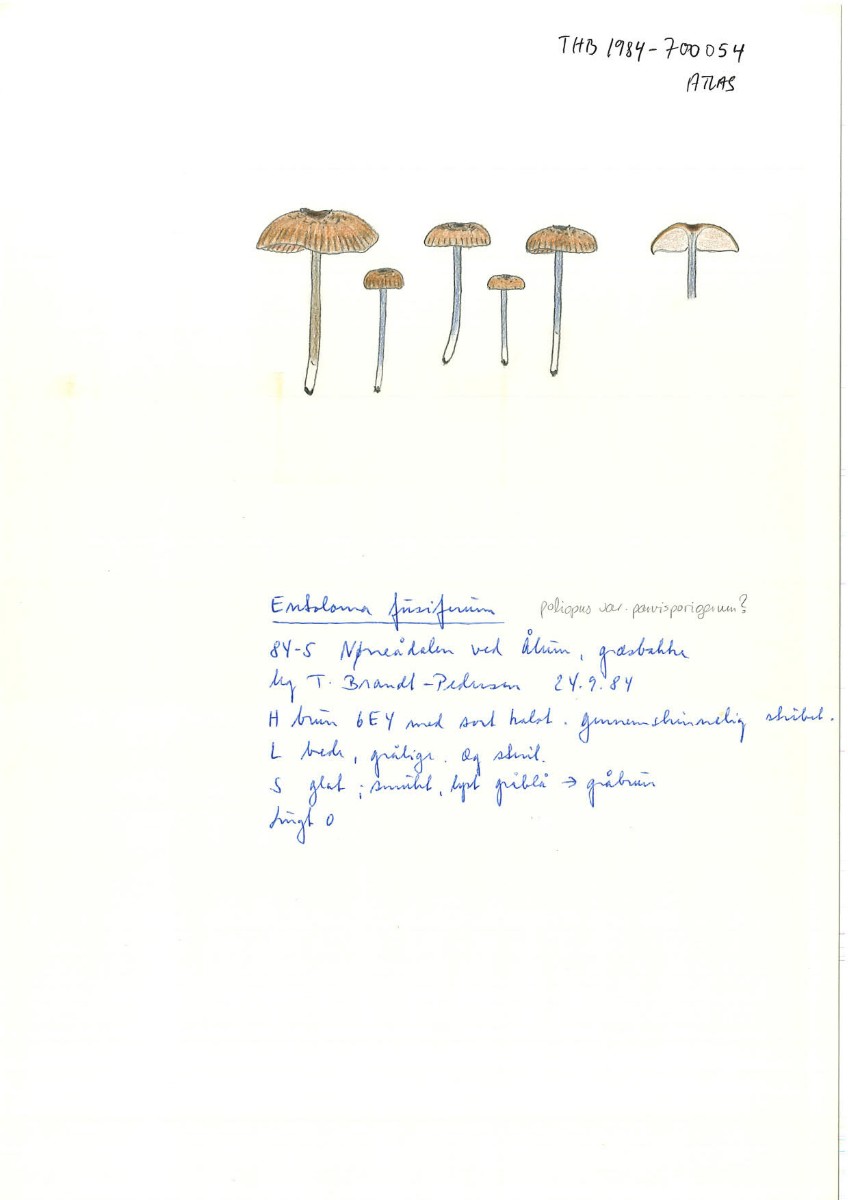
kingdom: Fungi
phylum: Basidiomycota
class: Agaricomycetes
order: Agaricales
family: Entolomataceae
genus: Entoloma
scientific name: Entoloma poliopus
